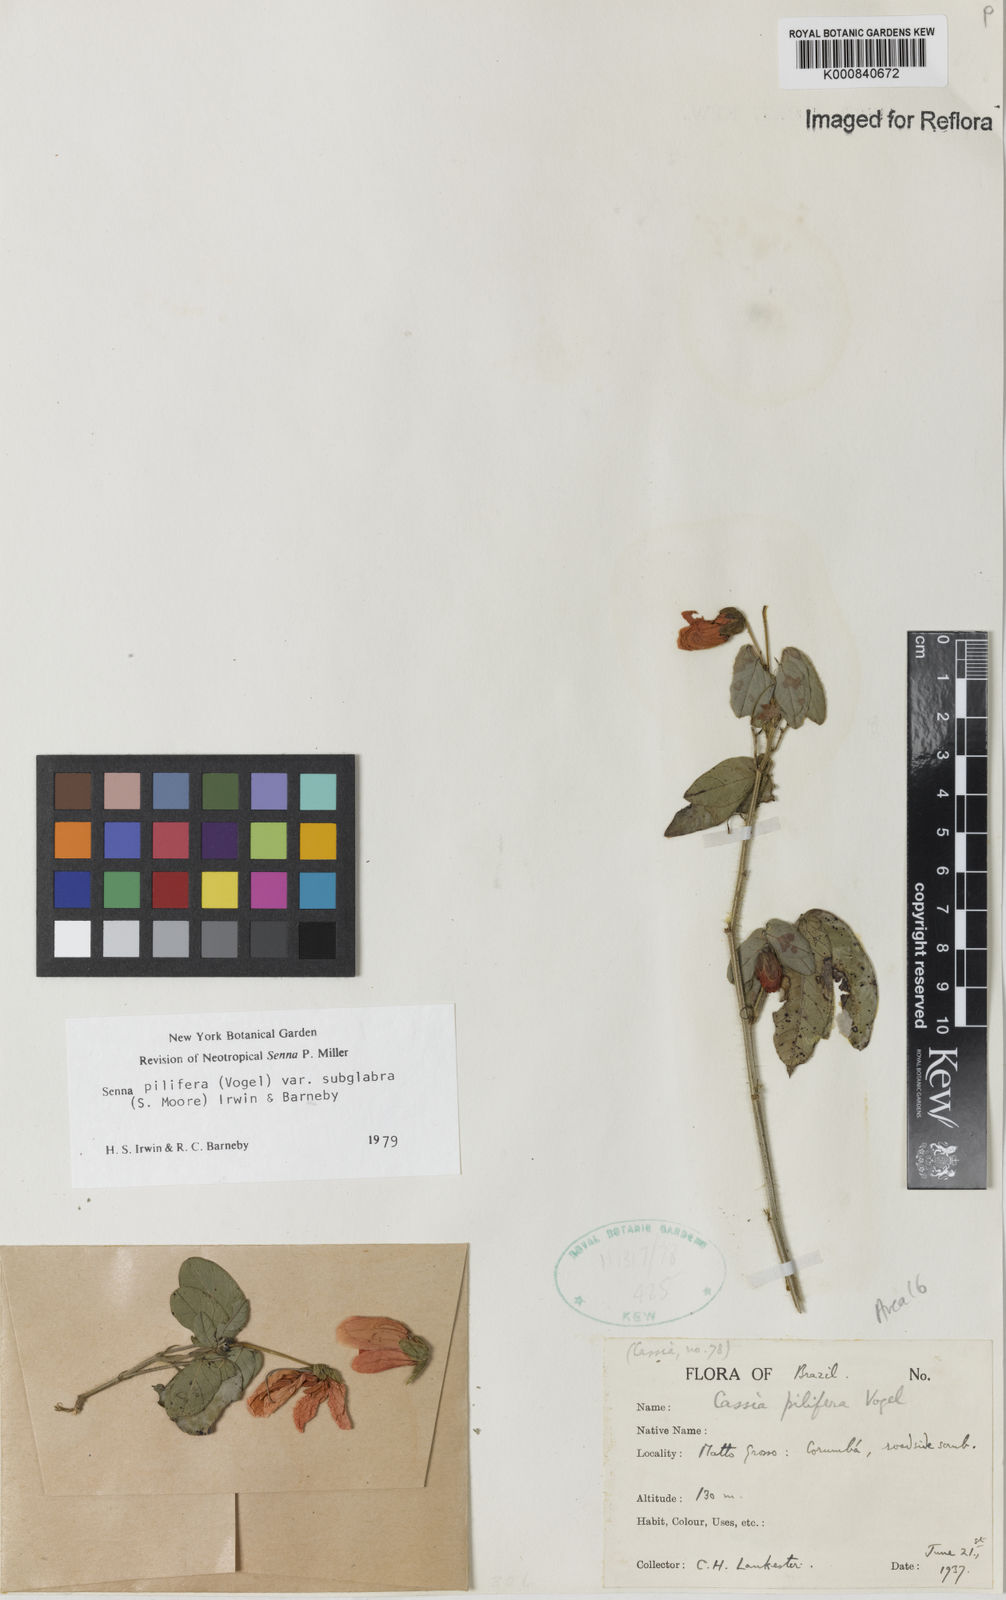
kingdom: Plantae
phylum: Tracheophyta
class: Magnoliopsida
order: Fabales
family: Fabaceae
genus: Senna
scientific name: Senna pilifera
